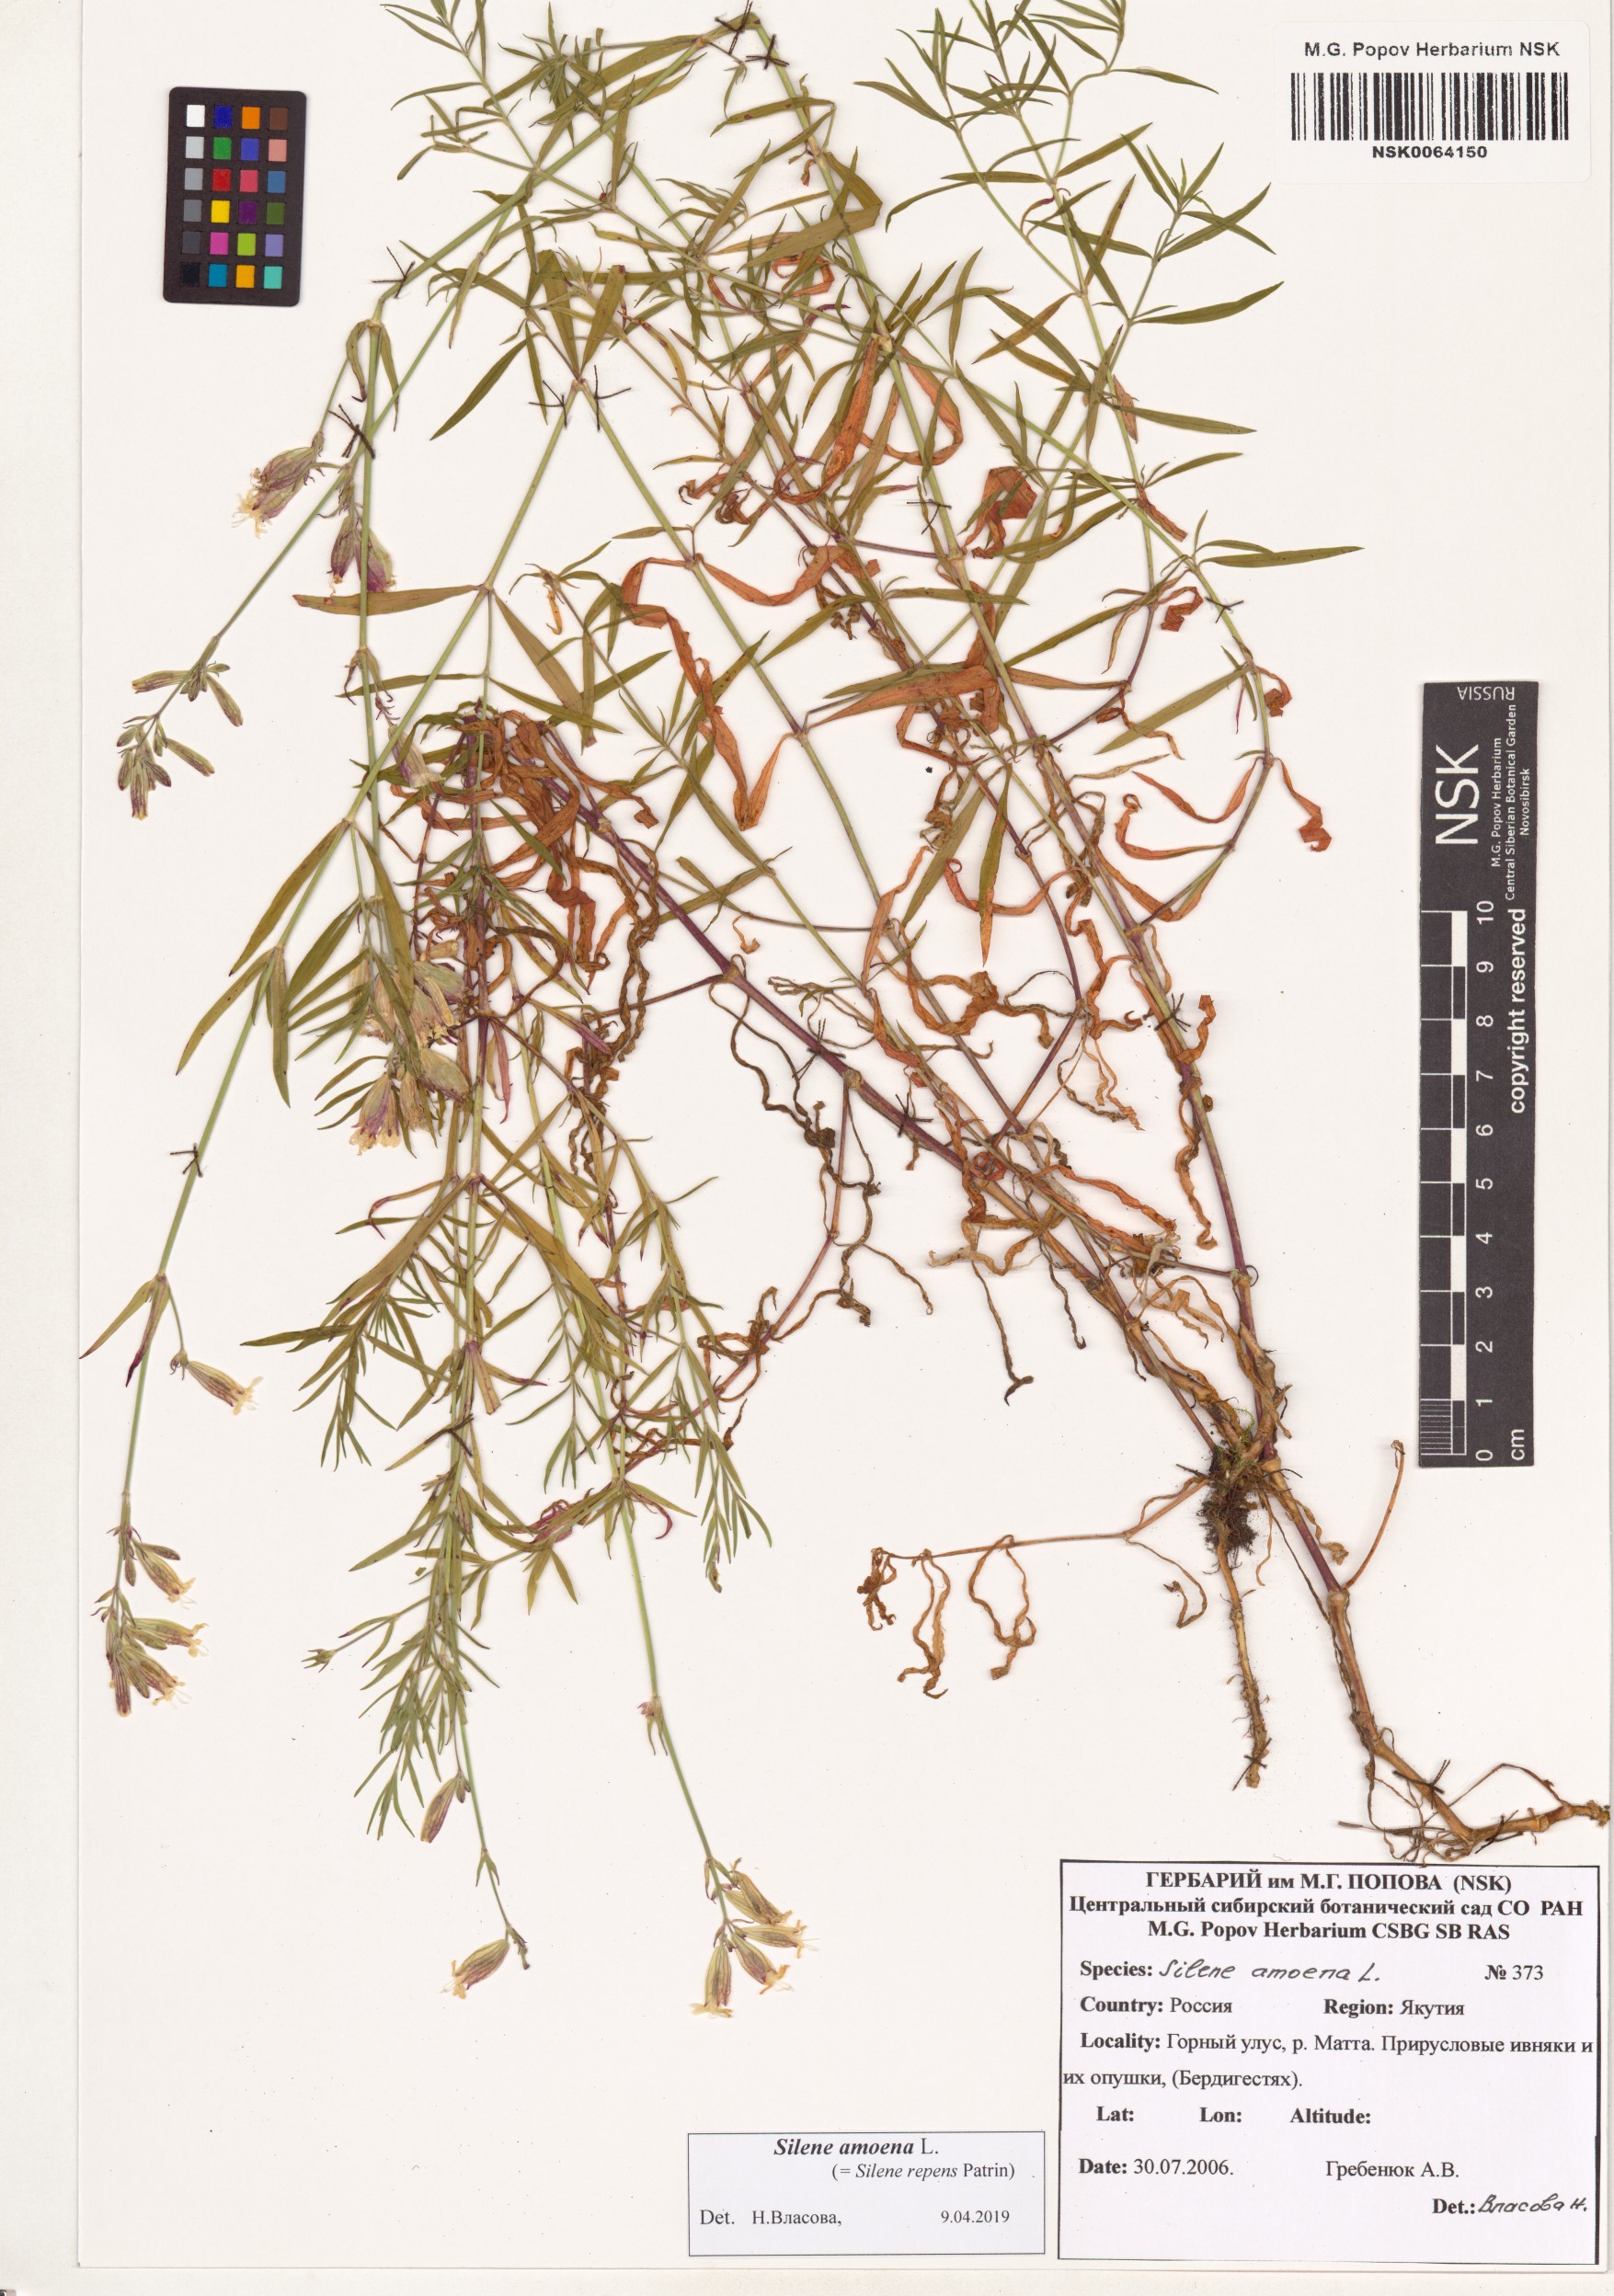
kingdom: Plantae
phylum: Tracheophyta
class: Magnoliopsida
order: Caryophyllales
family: Caryophyllaceae
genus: Silene
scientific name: Silene amoena
